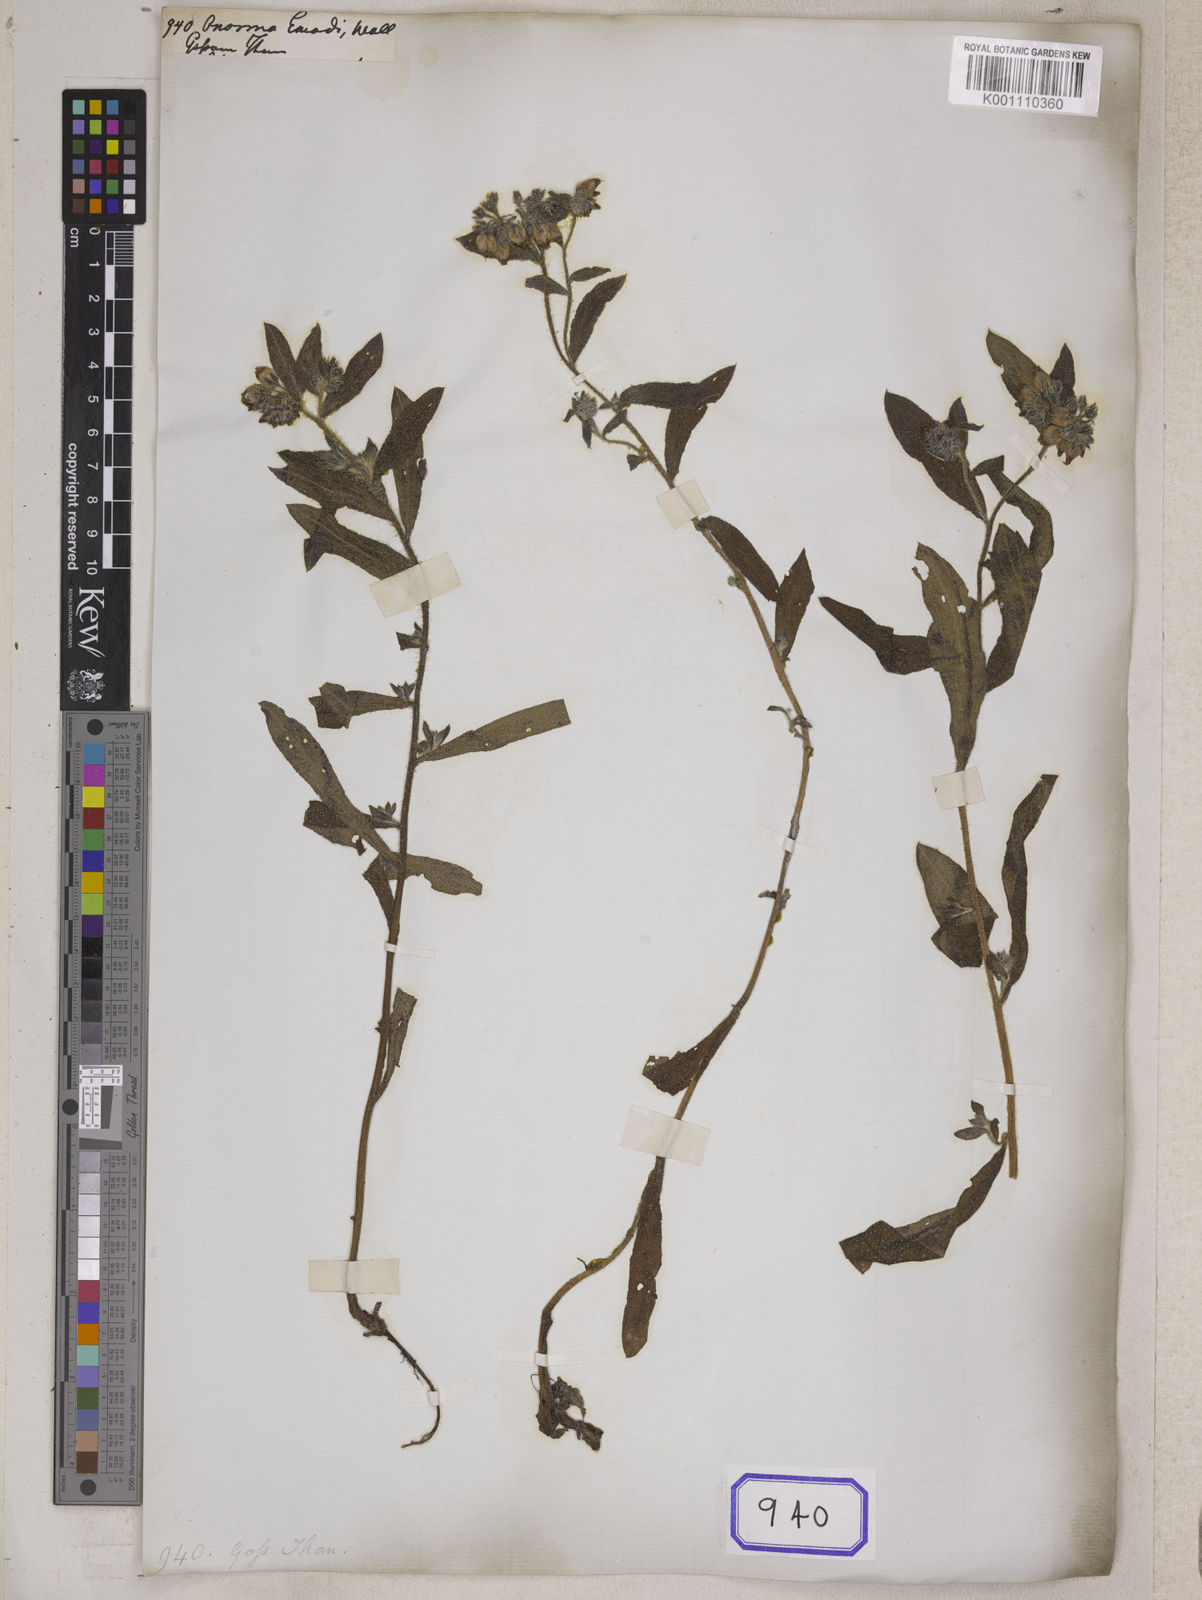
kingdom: Plantae
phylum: Tracheophyta
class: Magnoliopsida
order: Boraginales
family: Boraginaceae
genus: Maharanga
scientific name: Maharanga wallichiana
